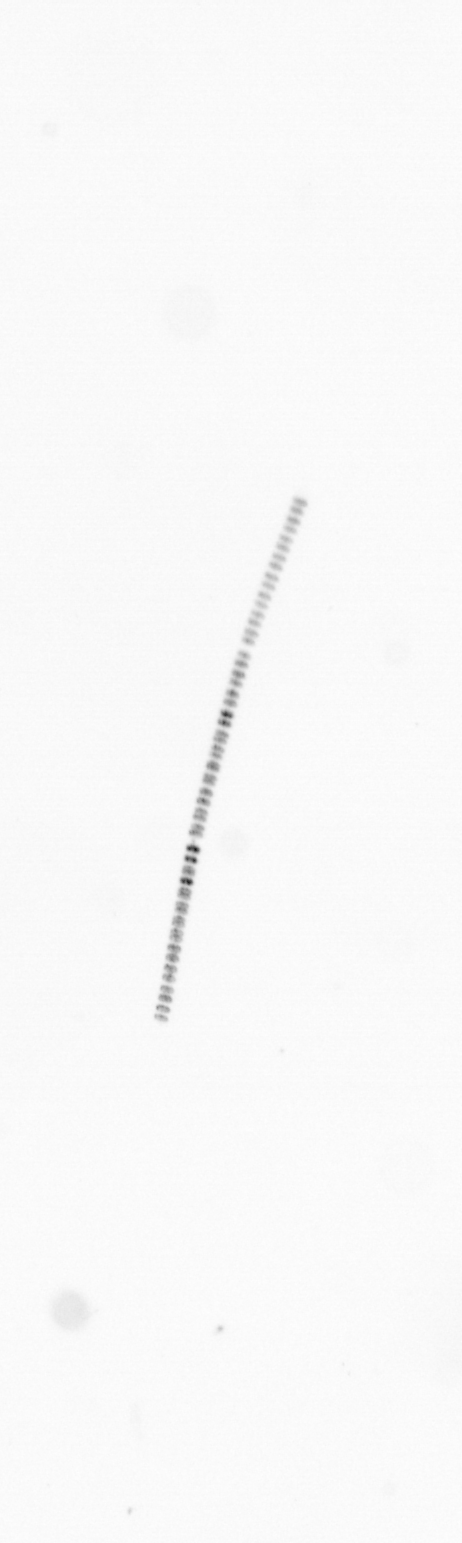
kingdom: Chromista
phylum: Ochrophyta
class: Bacillariophyceae
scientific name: Bacillariophyceae
